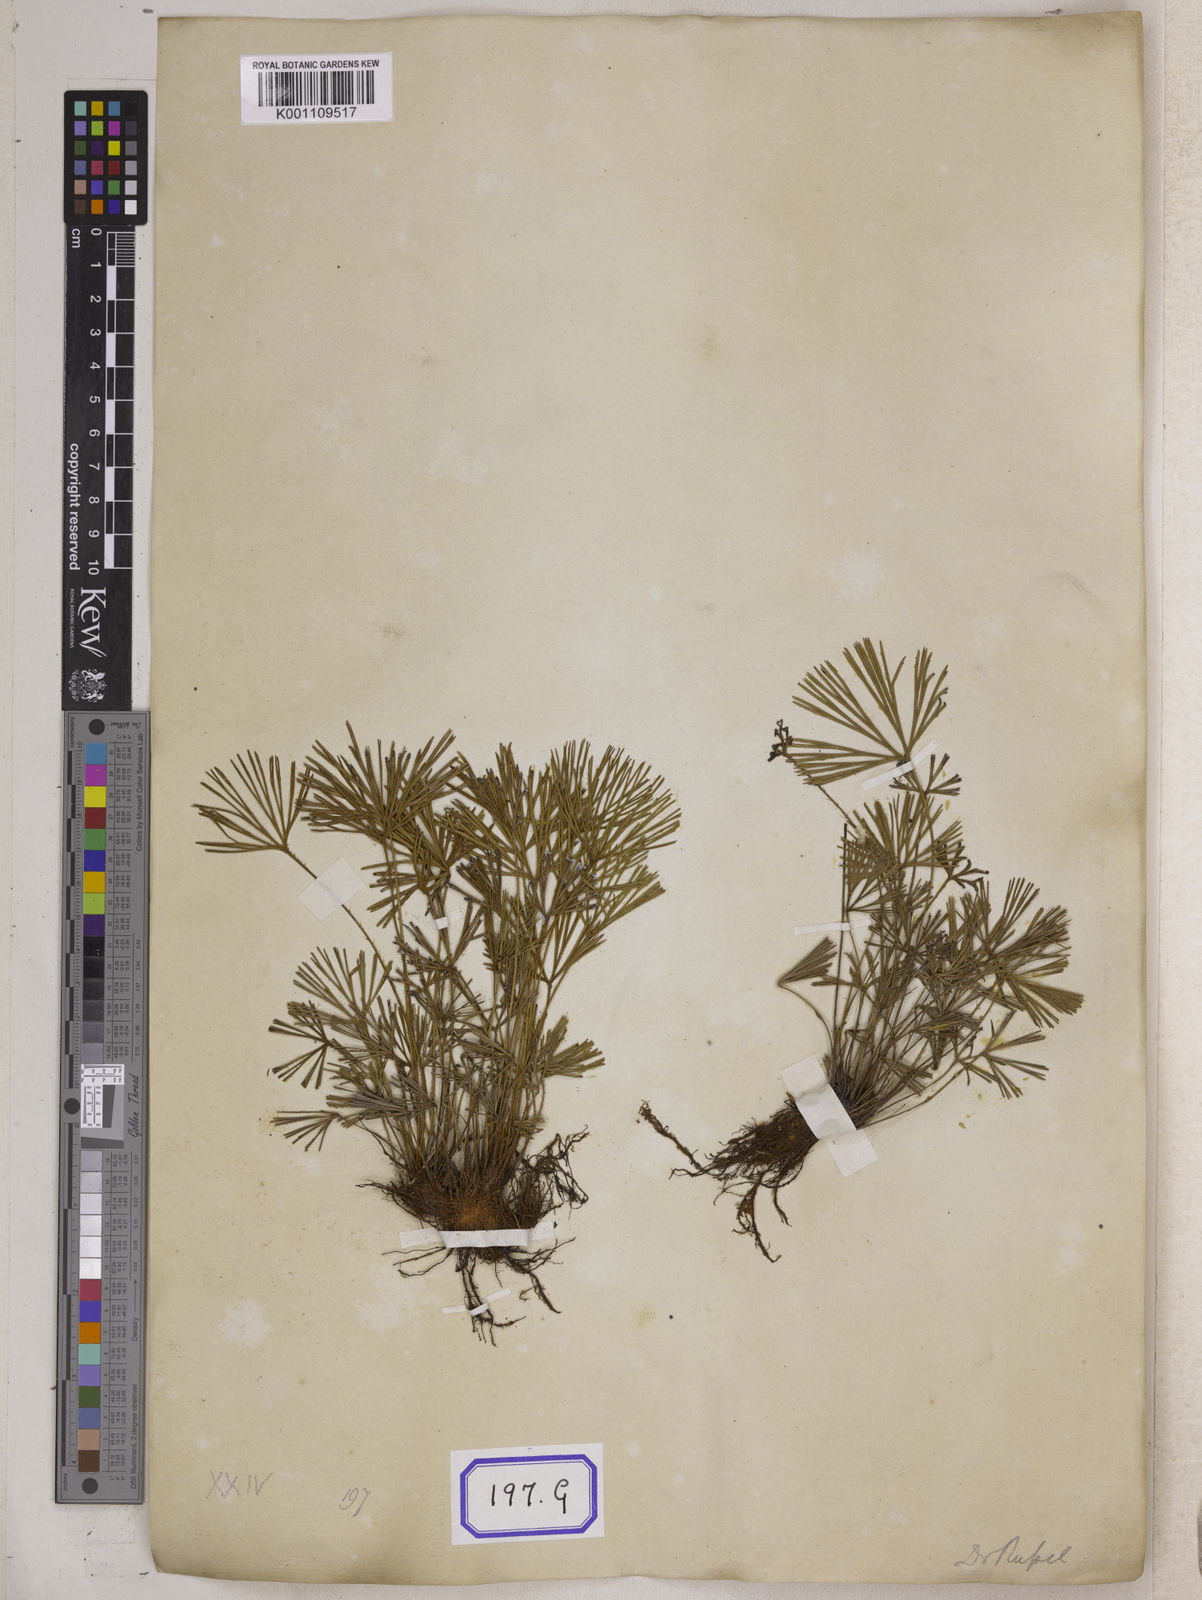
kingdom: Plantae
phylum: Tracheophyta
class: Polypodiopsida
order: Polypodiales
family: Pteridaceae
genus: Actiniopteris
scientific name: Actiniopteris radiata
